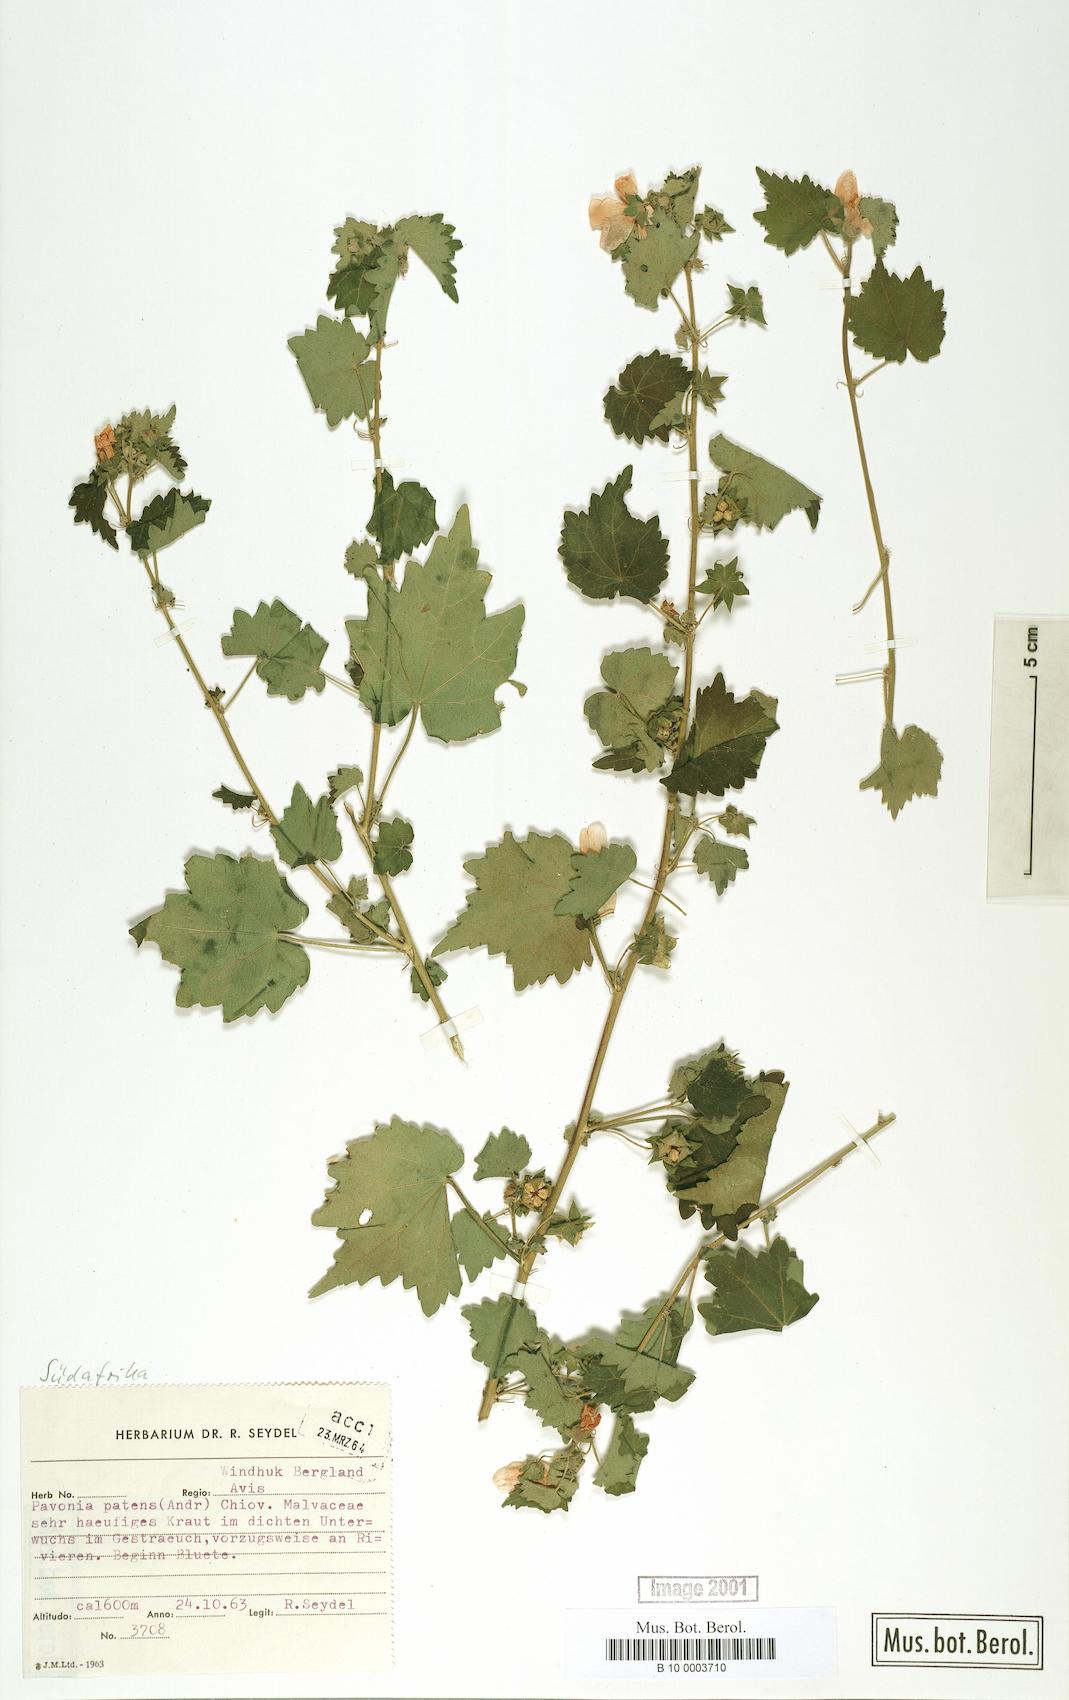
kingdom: Plantae
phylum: Tracheophyta
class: Magnoliopsida
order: Malvales
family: Malvaceae
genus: Abutilon
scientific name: Abutilon mauritianum
